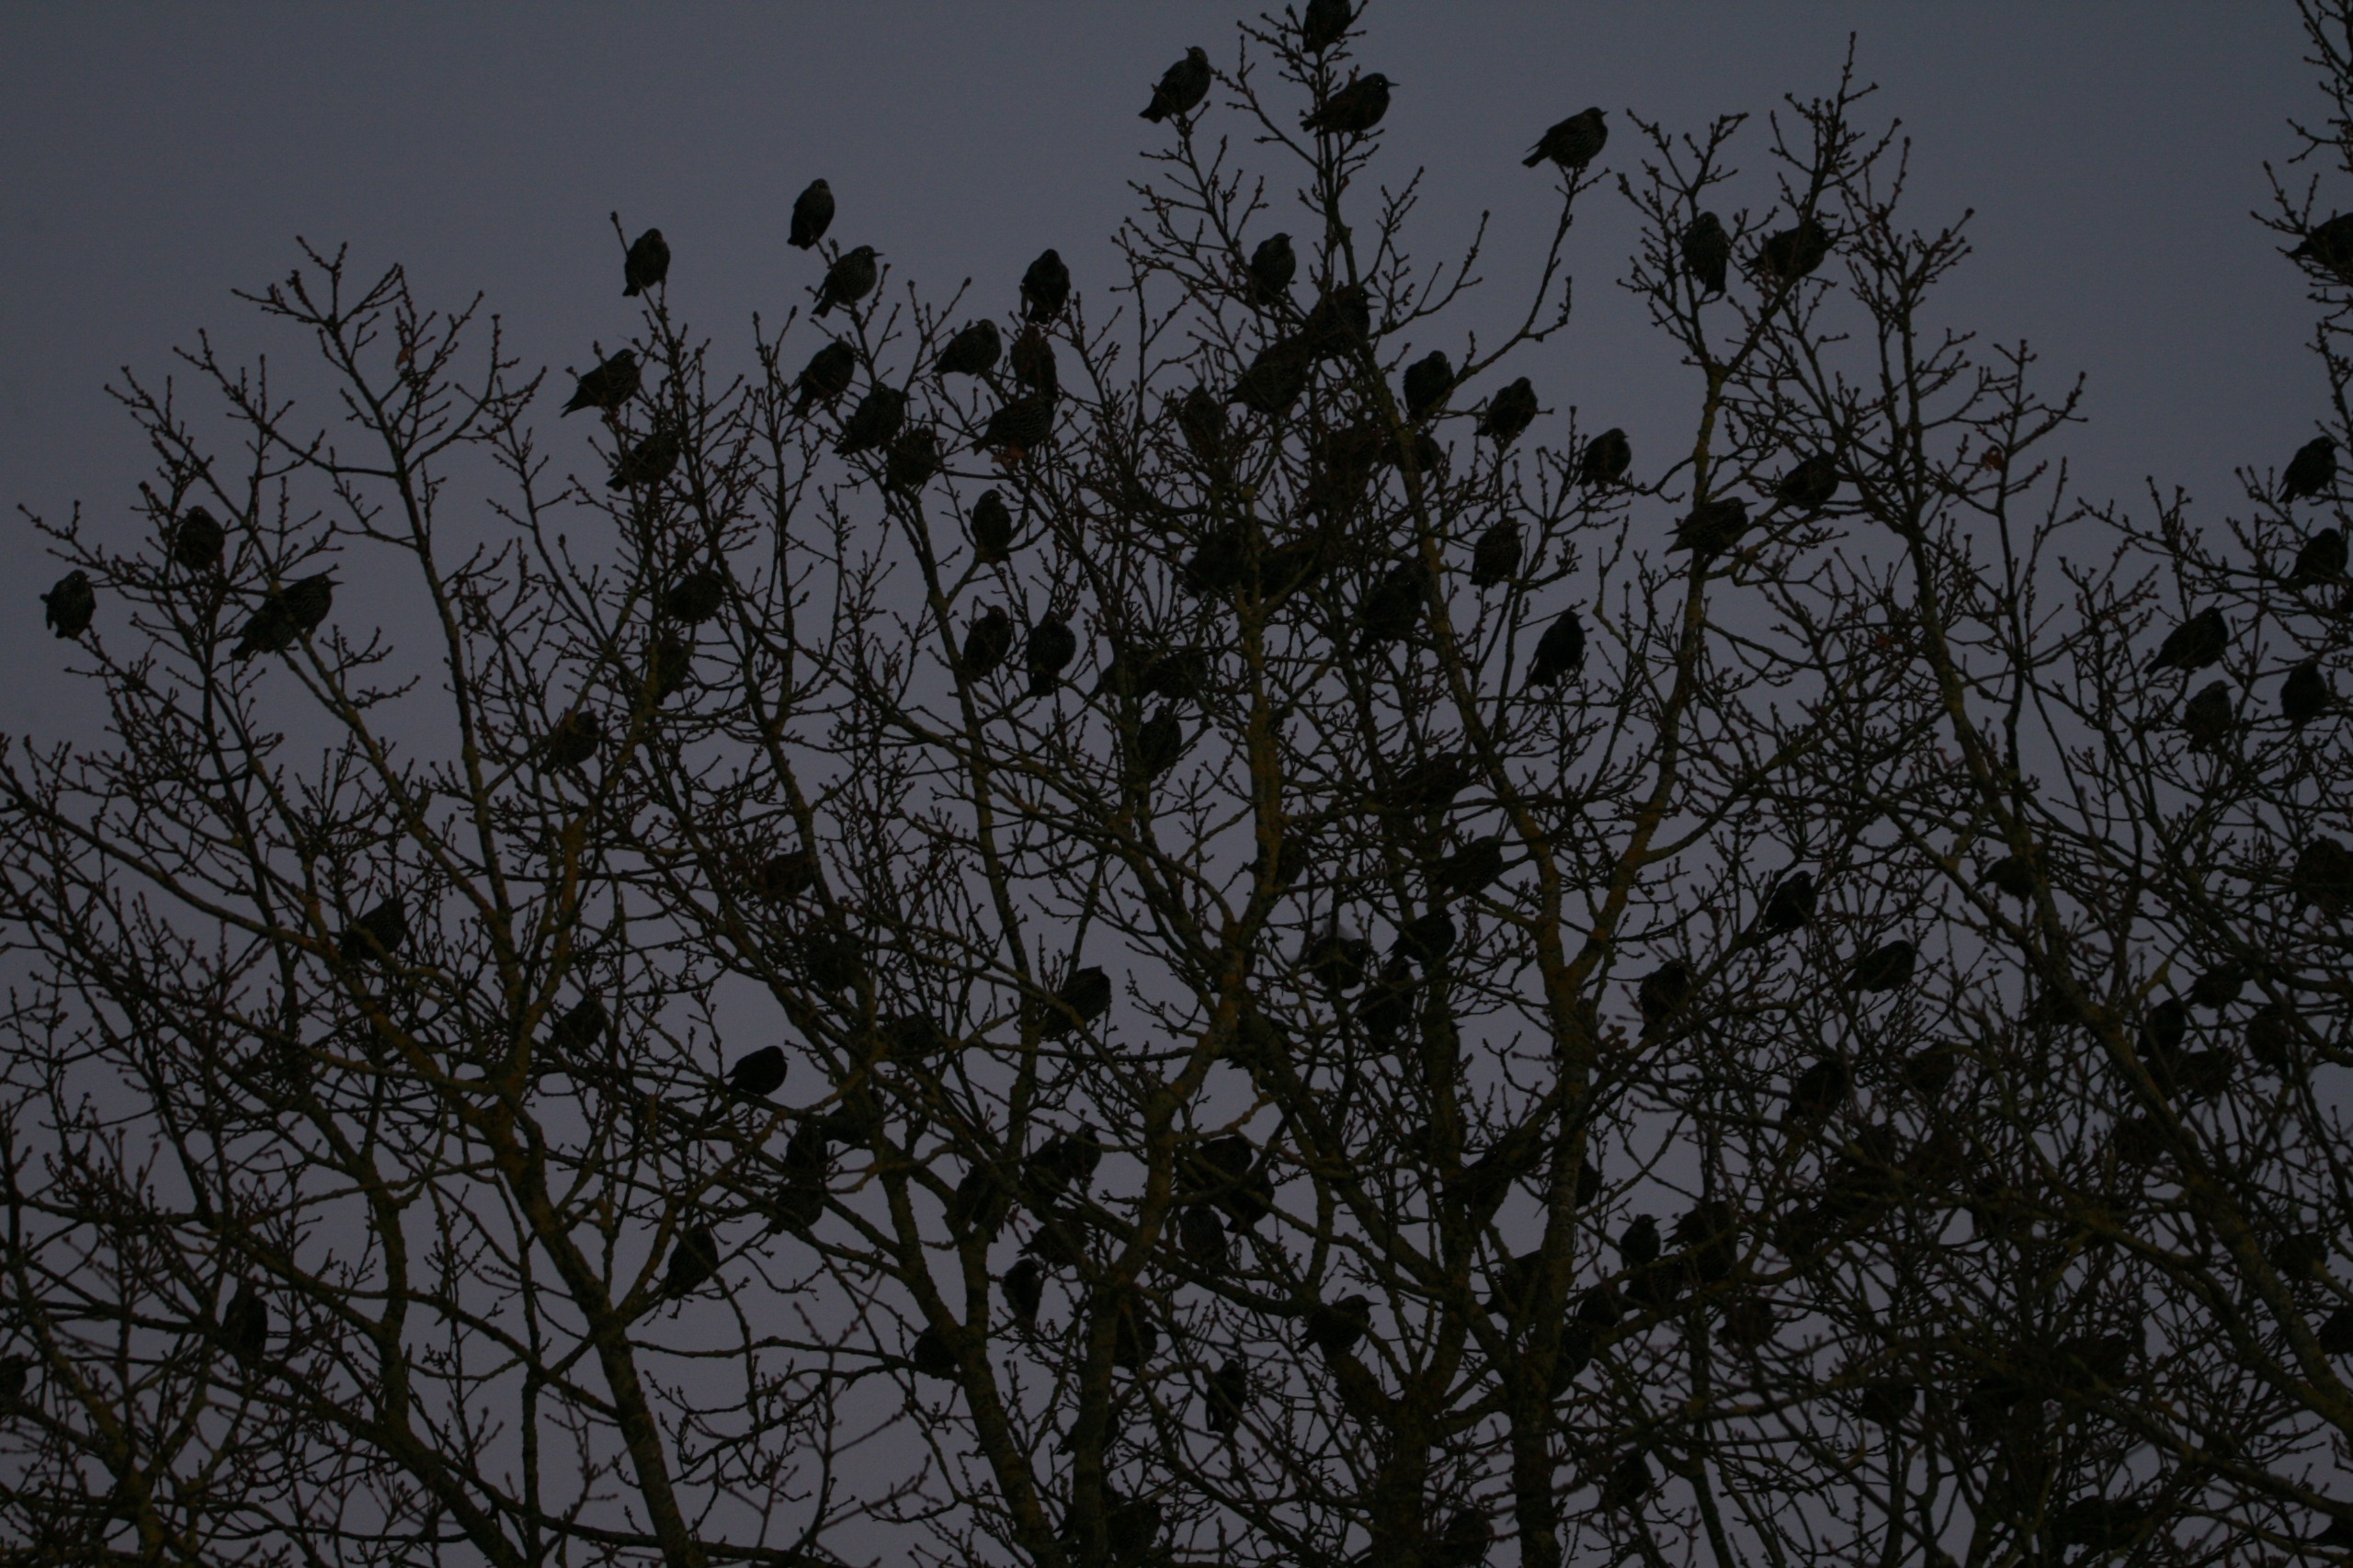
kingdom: Animalia
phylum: Chordata
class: Aves
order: Passeriformes
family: Sturnidae
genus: Sturnus
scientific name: Sturnus vulgaris
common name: Stær
